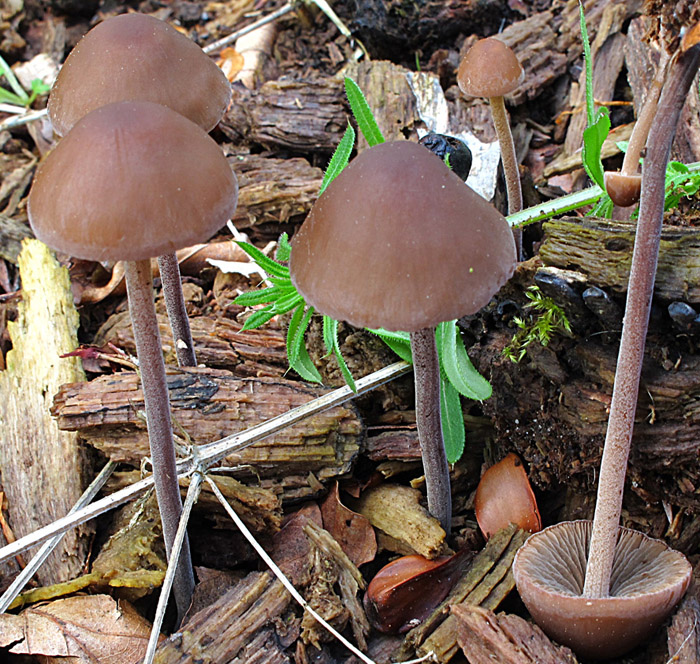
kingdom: Fungi
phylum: Basidiomycota
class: Agaricomycetes
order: Agaricales
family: Bolbitiaceae
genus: Panaeolus
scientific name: Panaeolus acuminatus
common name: høj glanshat
